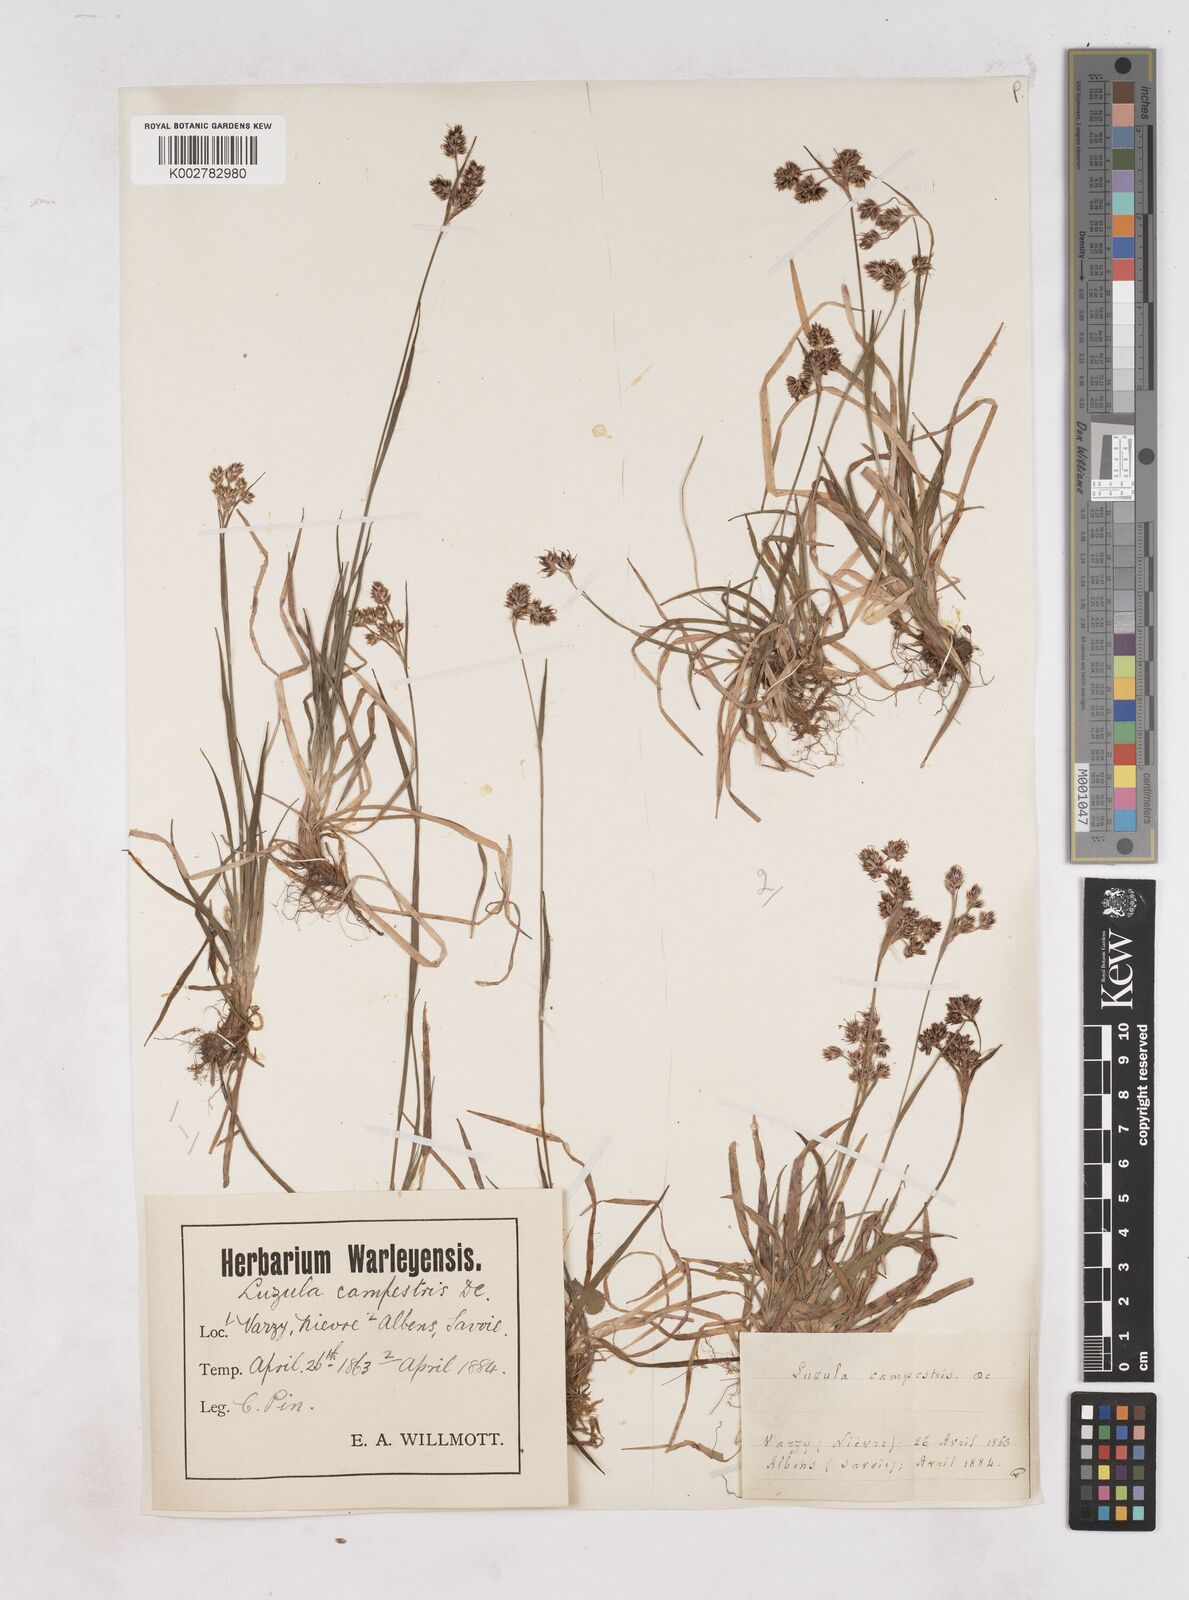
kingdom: Plantae
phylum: Tracheophyta
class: Liliopsida
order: Poales
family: Juncaceae
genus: Luzula
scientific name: Luzula campestris
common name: Field wood-rush
